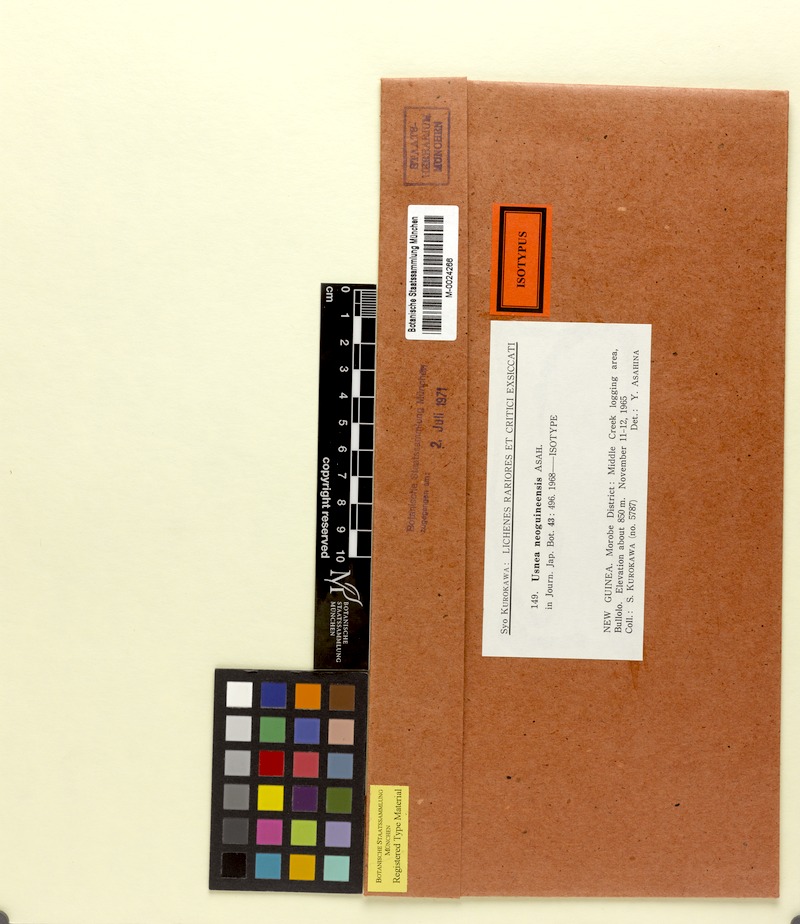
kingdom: Fungi
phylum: Ascomycota
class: Lecanoromycetes
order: Lecanorales
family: Parmeliaceae
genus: Usnea
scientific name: Usnea himantodes
